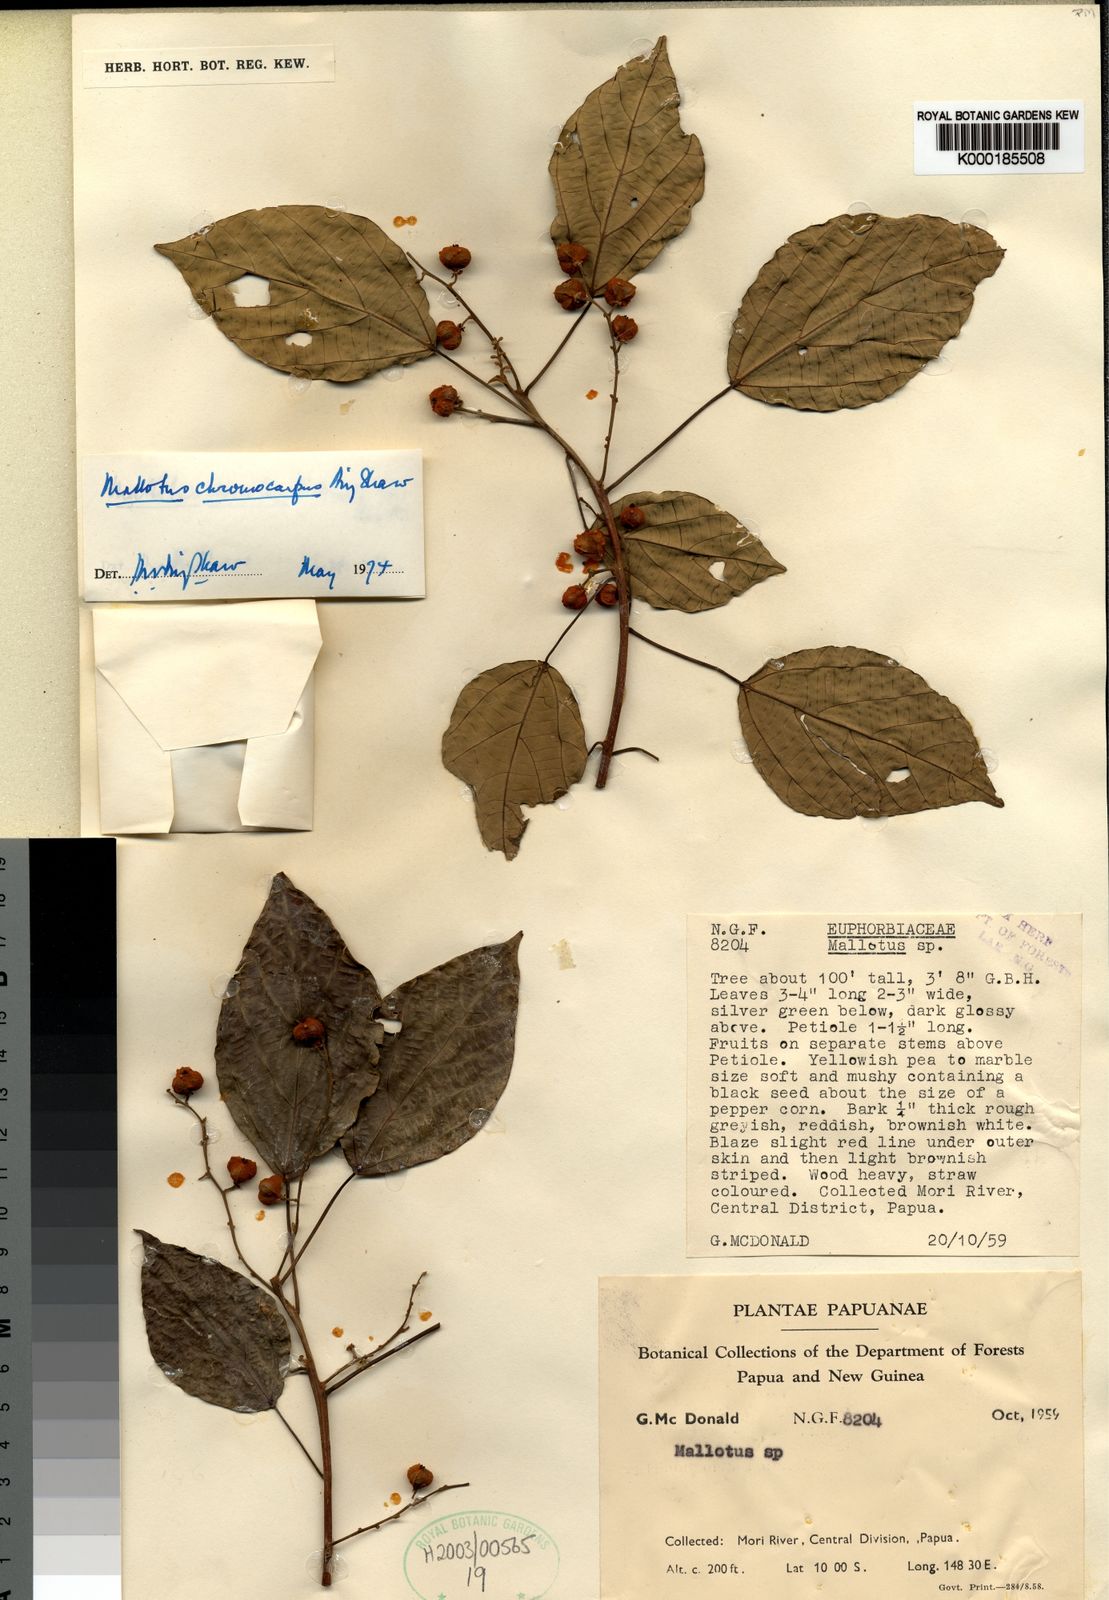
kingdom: Plantae
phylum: Tracheophyta
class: Magnoliopsida
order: Malpighiales
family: Euphorbiaceae
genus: Mallotus
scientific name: Mallotus chromocarpus
